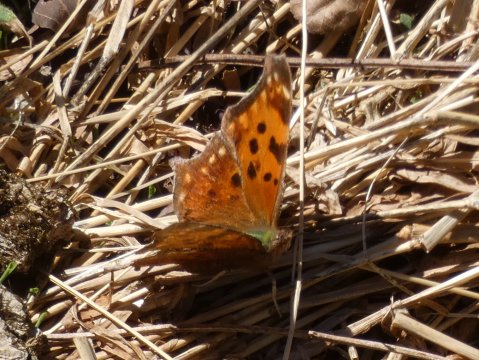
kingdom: Animalia
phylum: Arthropoda
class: Insecta
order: Lepidoptera
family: Nymphalidae
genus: Polygonia
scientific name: Polygonia comma
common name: Eastern Comma
